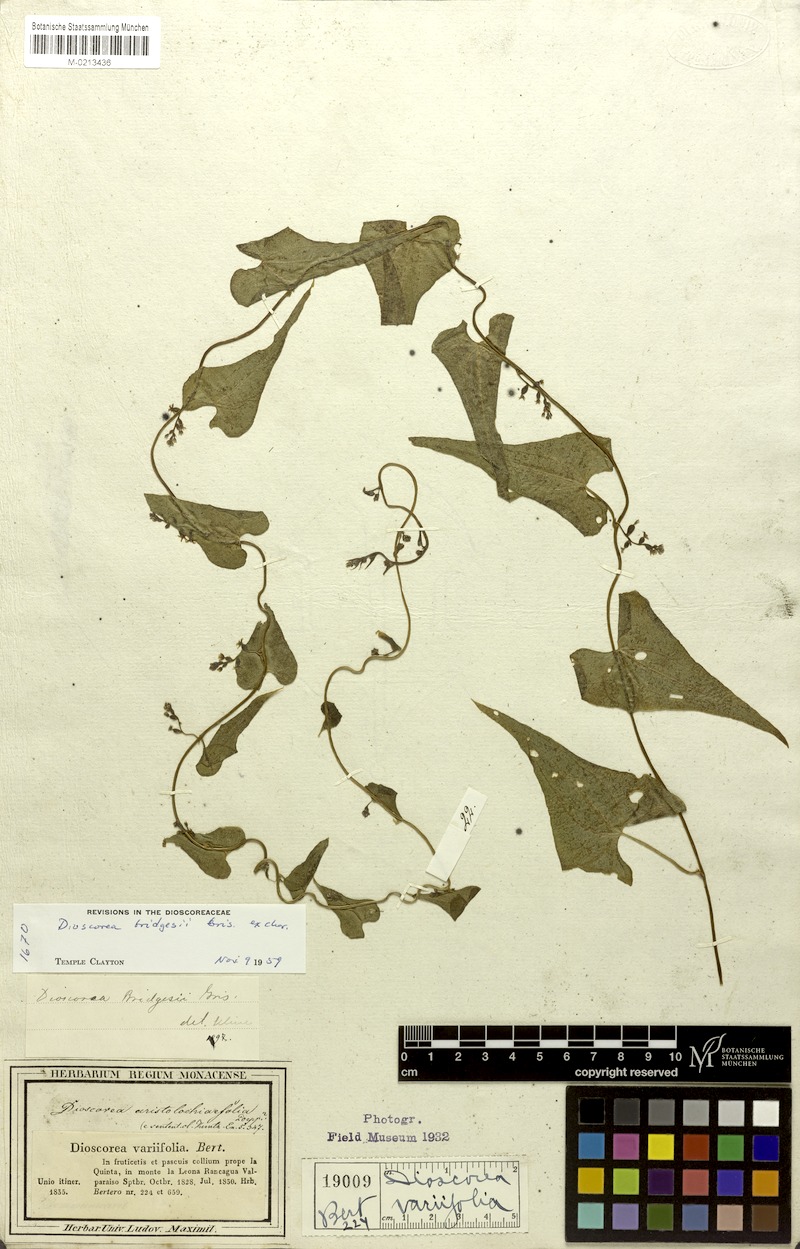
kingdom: Plantae
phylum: Tracheophyta
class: Liliopsida
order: Dioscoreales
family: Dioscoreaceae
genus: Dioscorea
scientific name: Dioscorea bridgesii
